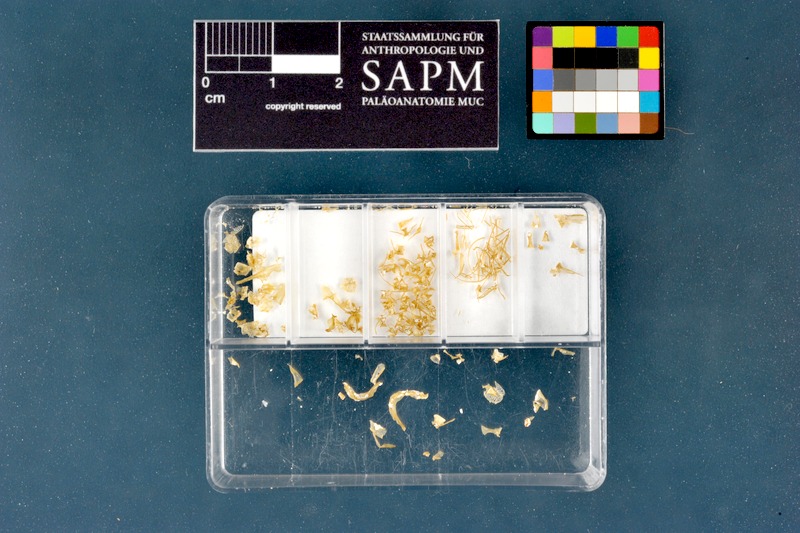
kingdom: Animalia
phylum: Chordata
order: Cypriniformes
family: Nemacheilidae
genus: Barbatula
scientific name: Barbatula barbatula
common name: Stone loach
